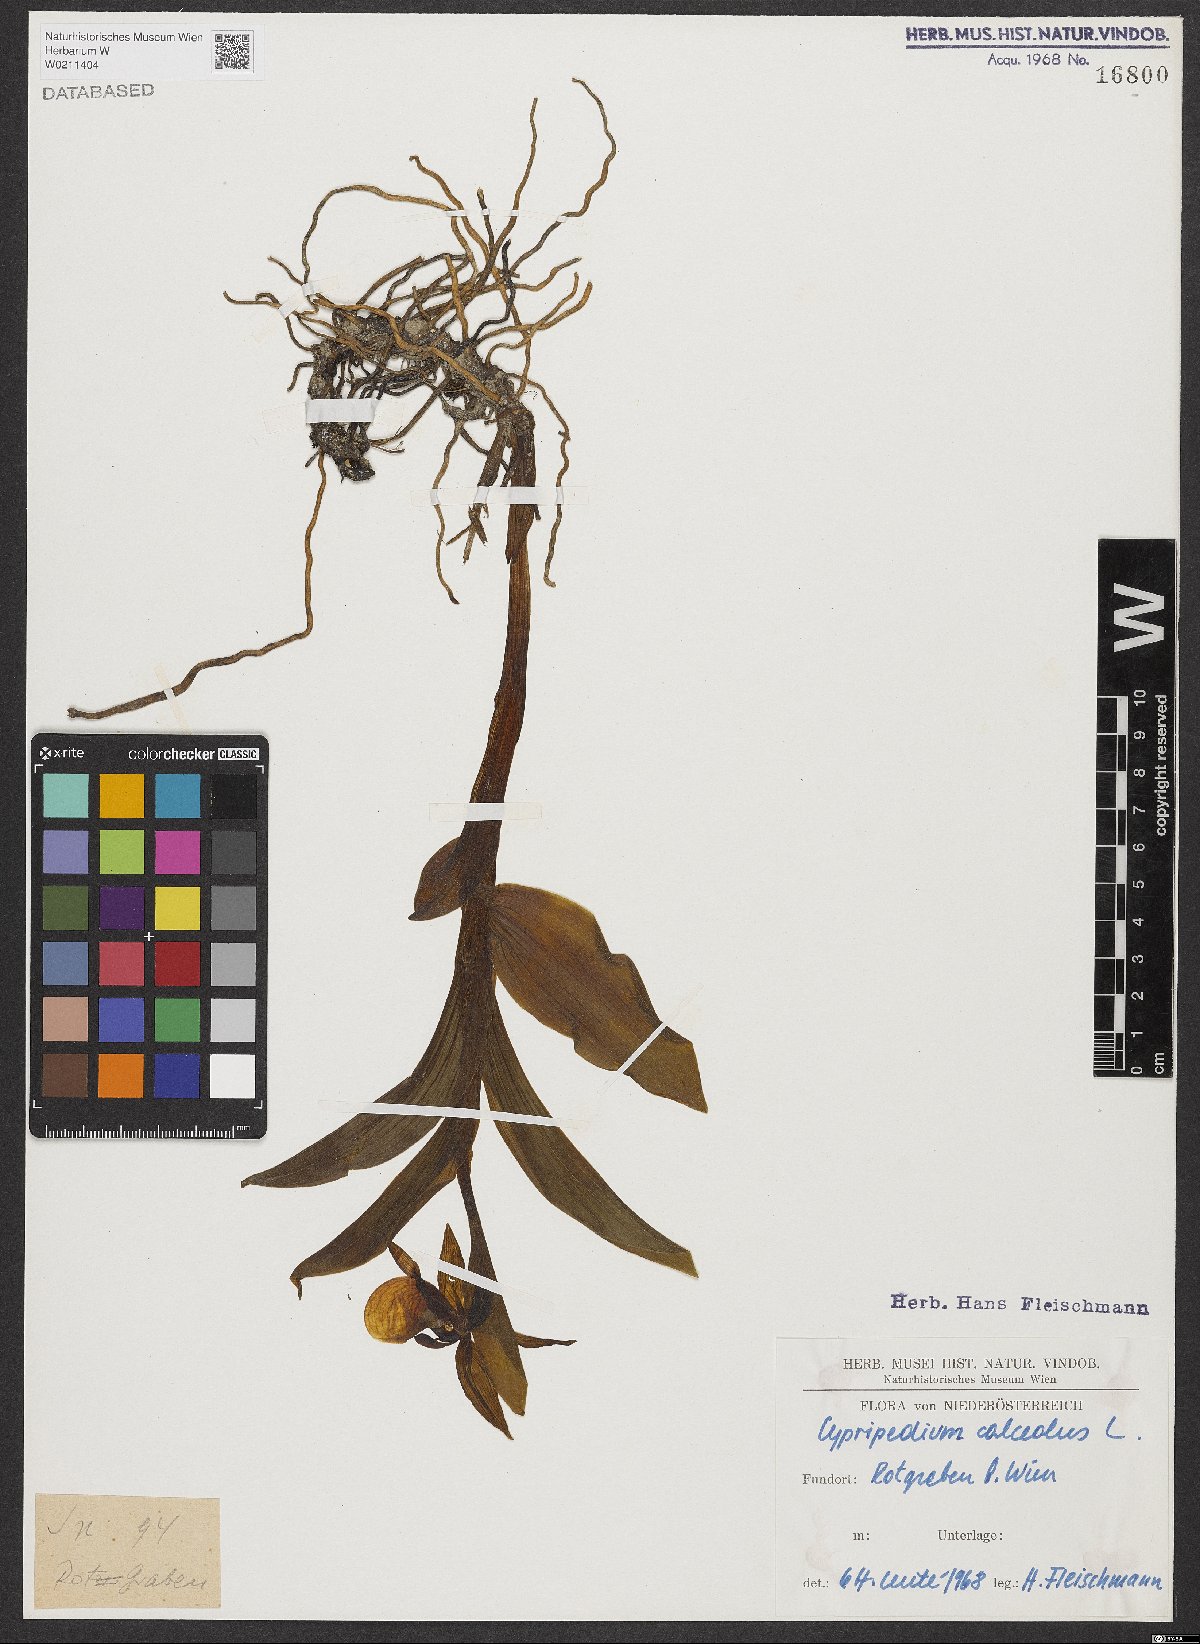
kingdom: Plantae
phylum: Tracheophyta
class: Liliopsida
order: Asparagales
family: Orchidaceae
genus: Cypripedium
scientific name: Cypripedium calceolus
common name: Lady's-slipper
